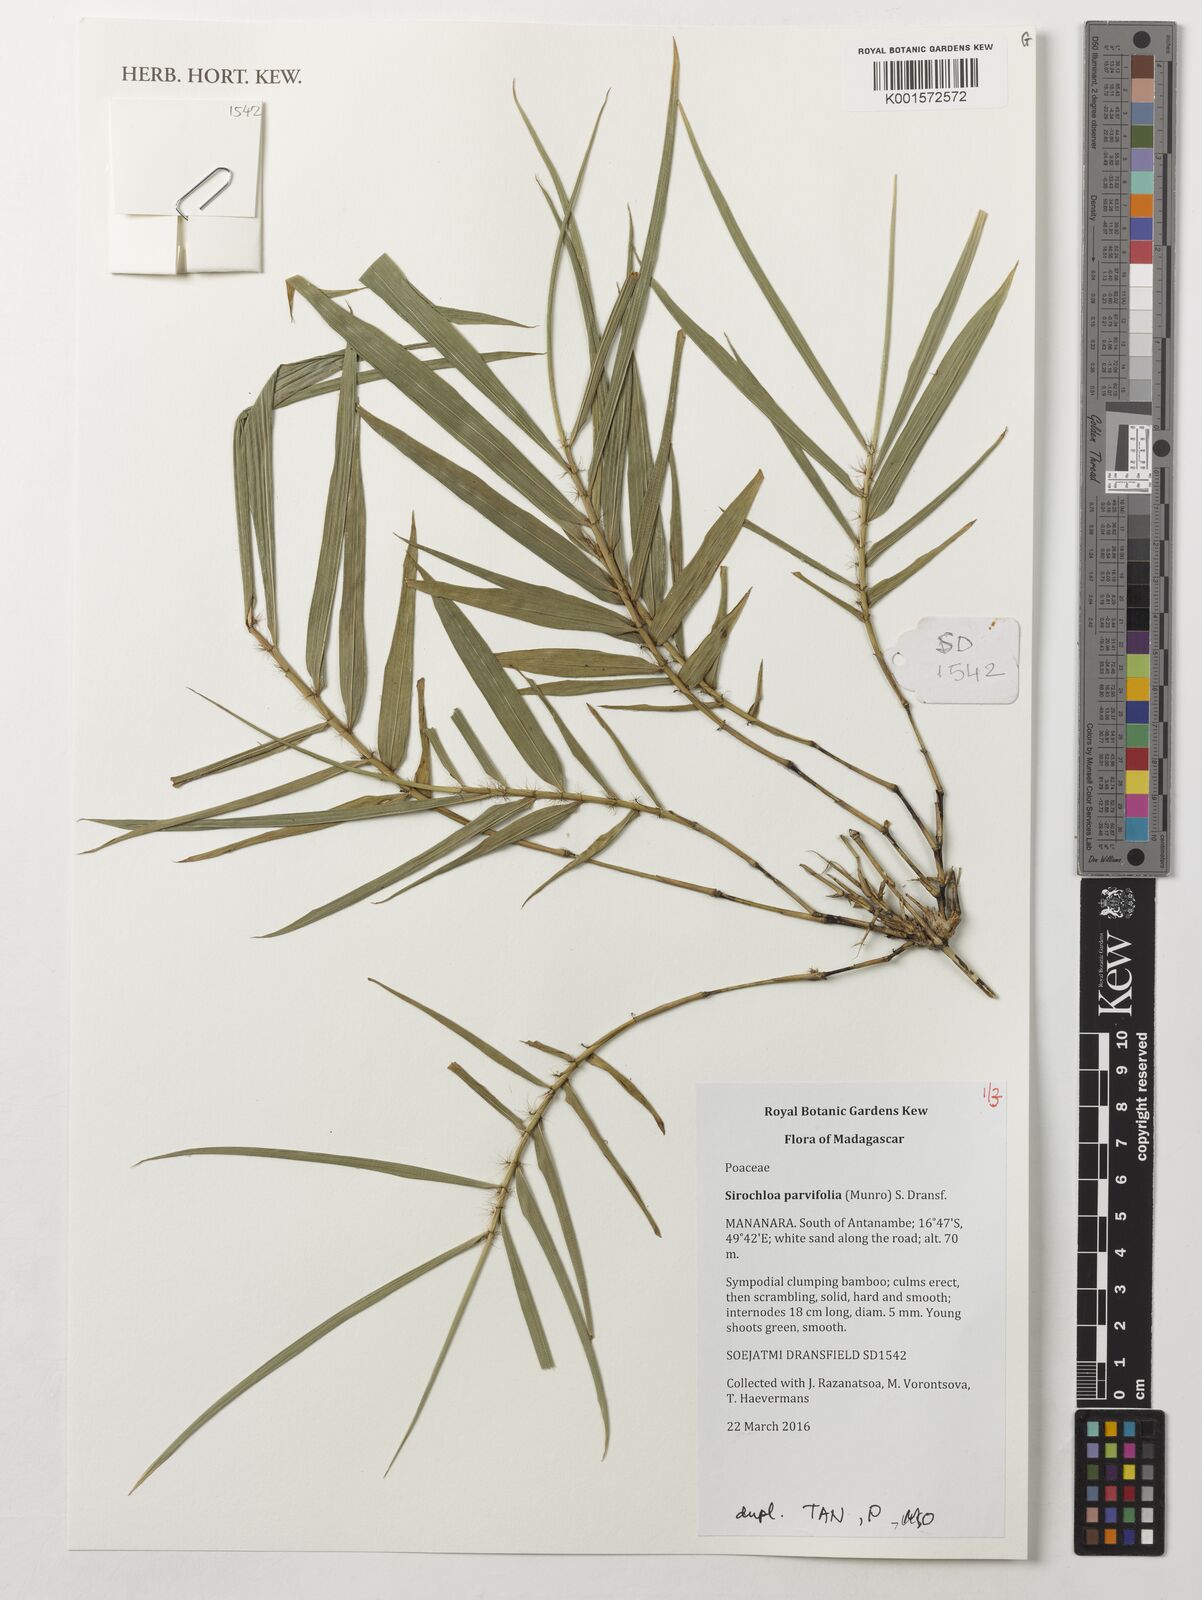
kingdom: Plantae
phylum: Tracheophyta
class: Liliopsida
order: Poales
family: Poaceae
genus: Sirochloa
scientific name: Sirochloa parvifolia
